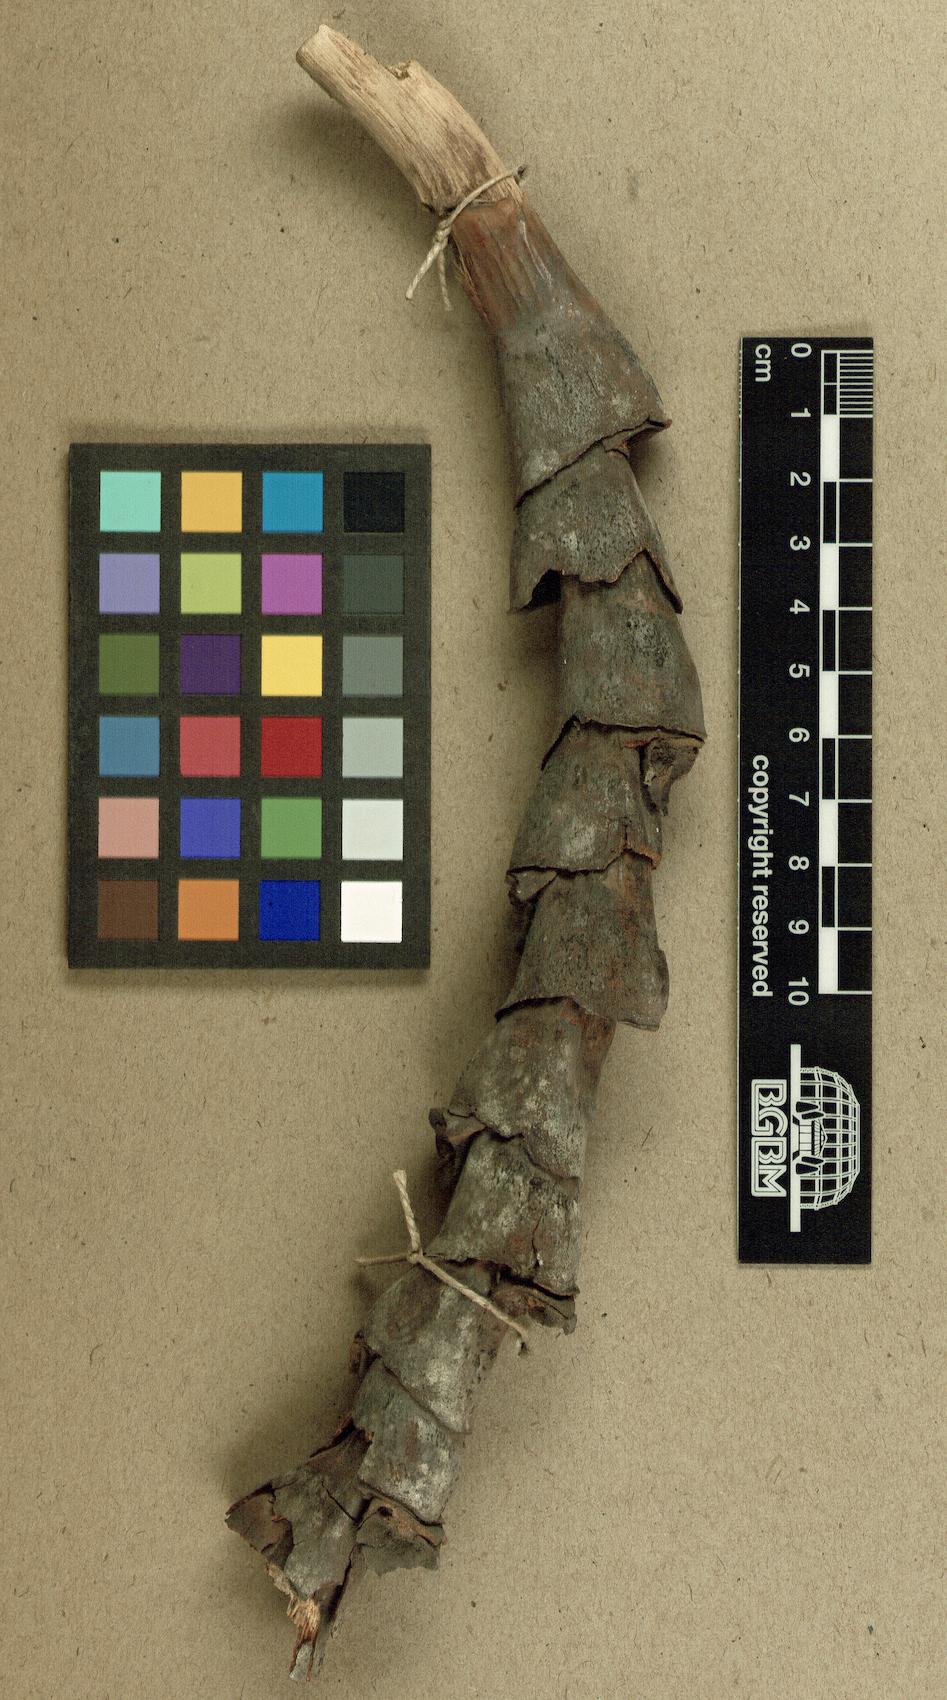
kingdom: Plantae
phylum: Tracheophyta
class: Liliopsida
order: Arecales
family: Arecaceae
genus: Mauritia
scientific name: Mauritia flexuosa
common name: Tree-of-life
